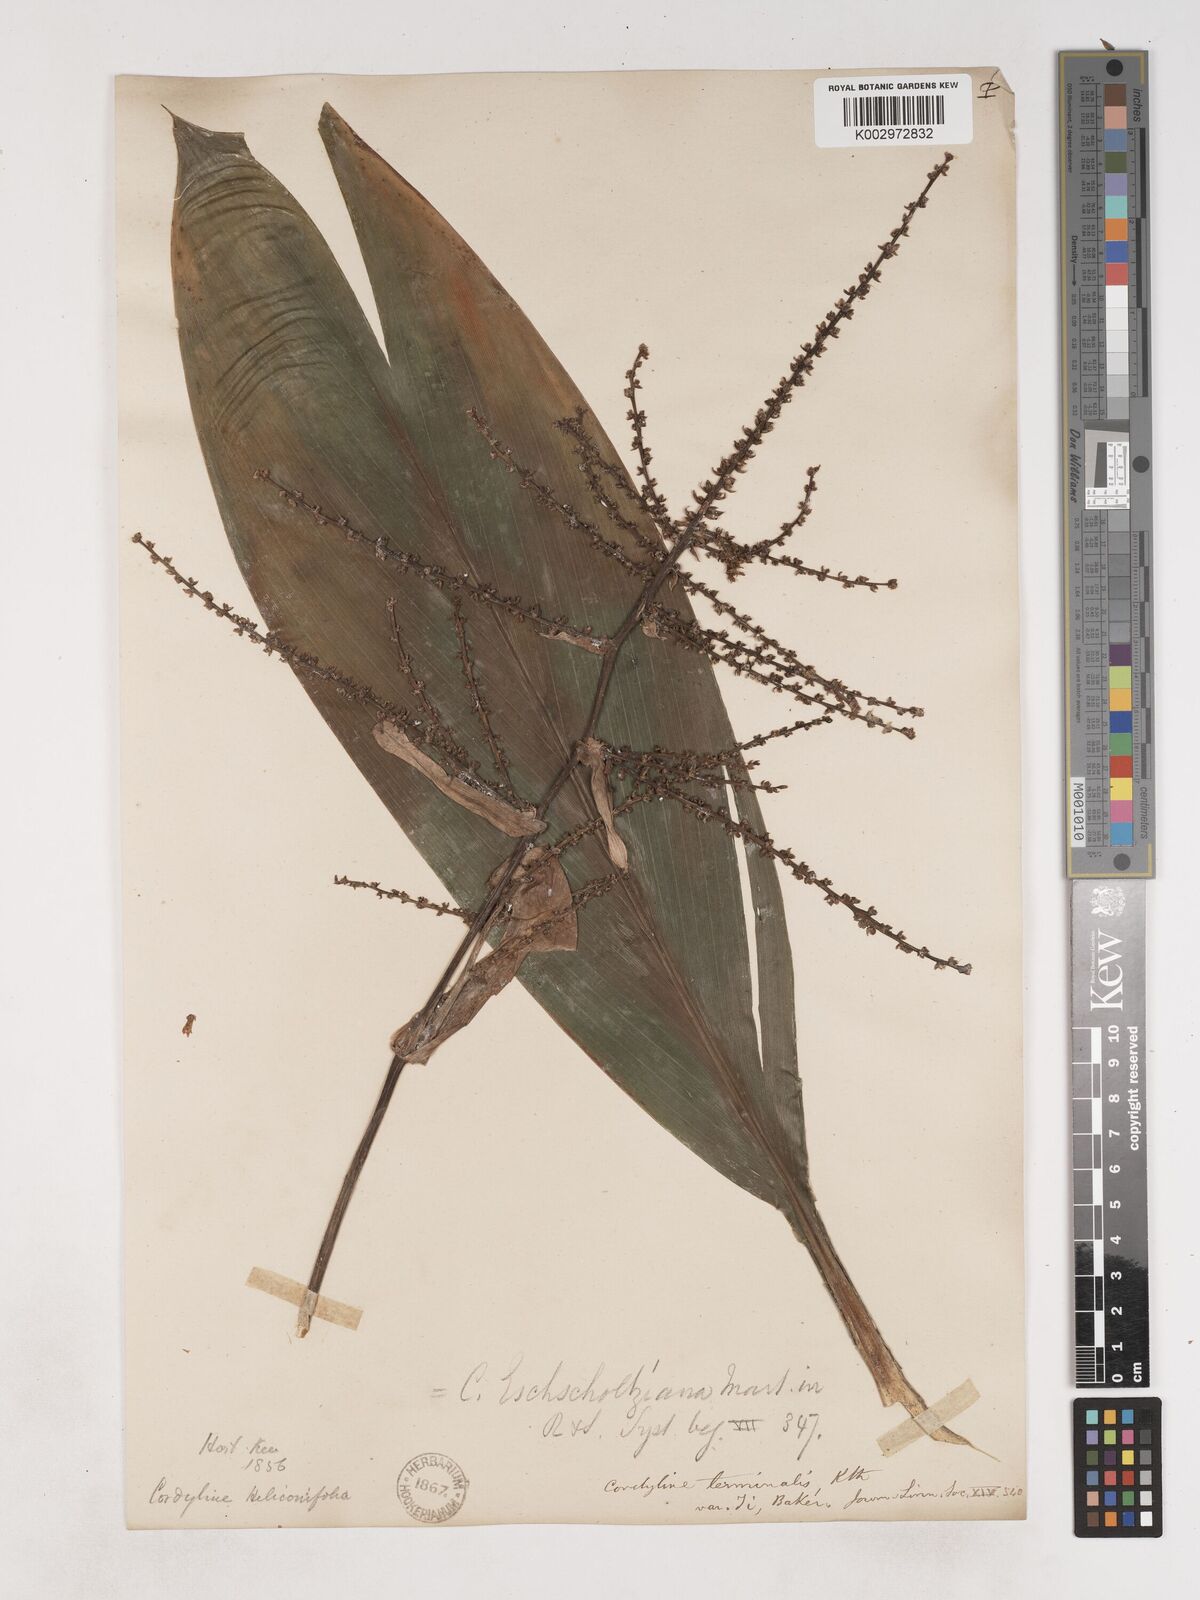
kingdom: Plantae
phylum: Tracheophyta
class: Liliopsida
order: Asparagales
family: Asparagaceae
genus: Cordyline
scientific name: Cordyline fruticosa
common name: Good-luck-plant
